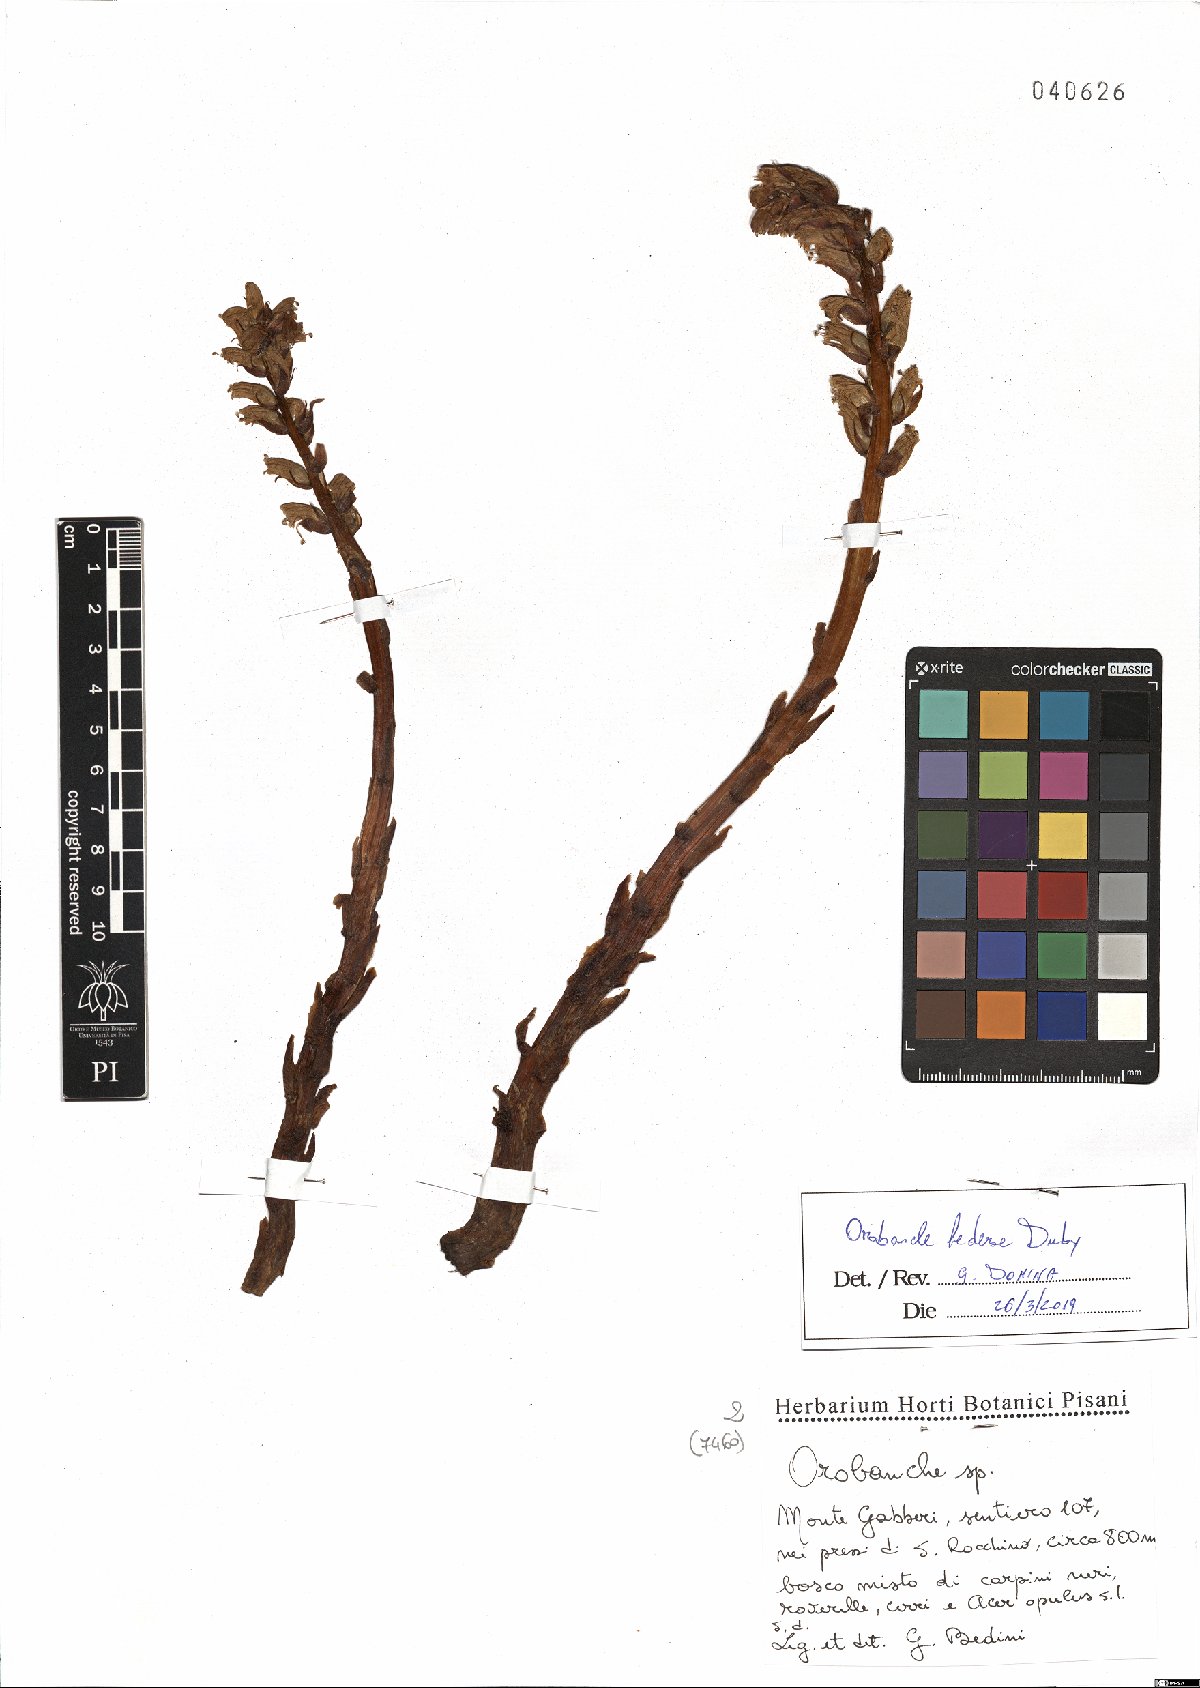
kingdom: Plantae
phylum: Tracheophyta
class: Magnoliopsida
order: Lamiales
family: Orobanchaceae
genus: Orobanche
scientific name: Orobanche hederae
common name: Ivy broomrape
